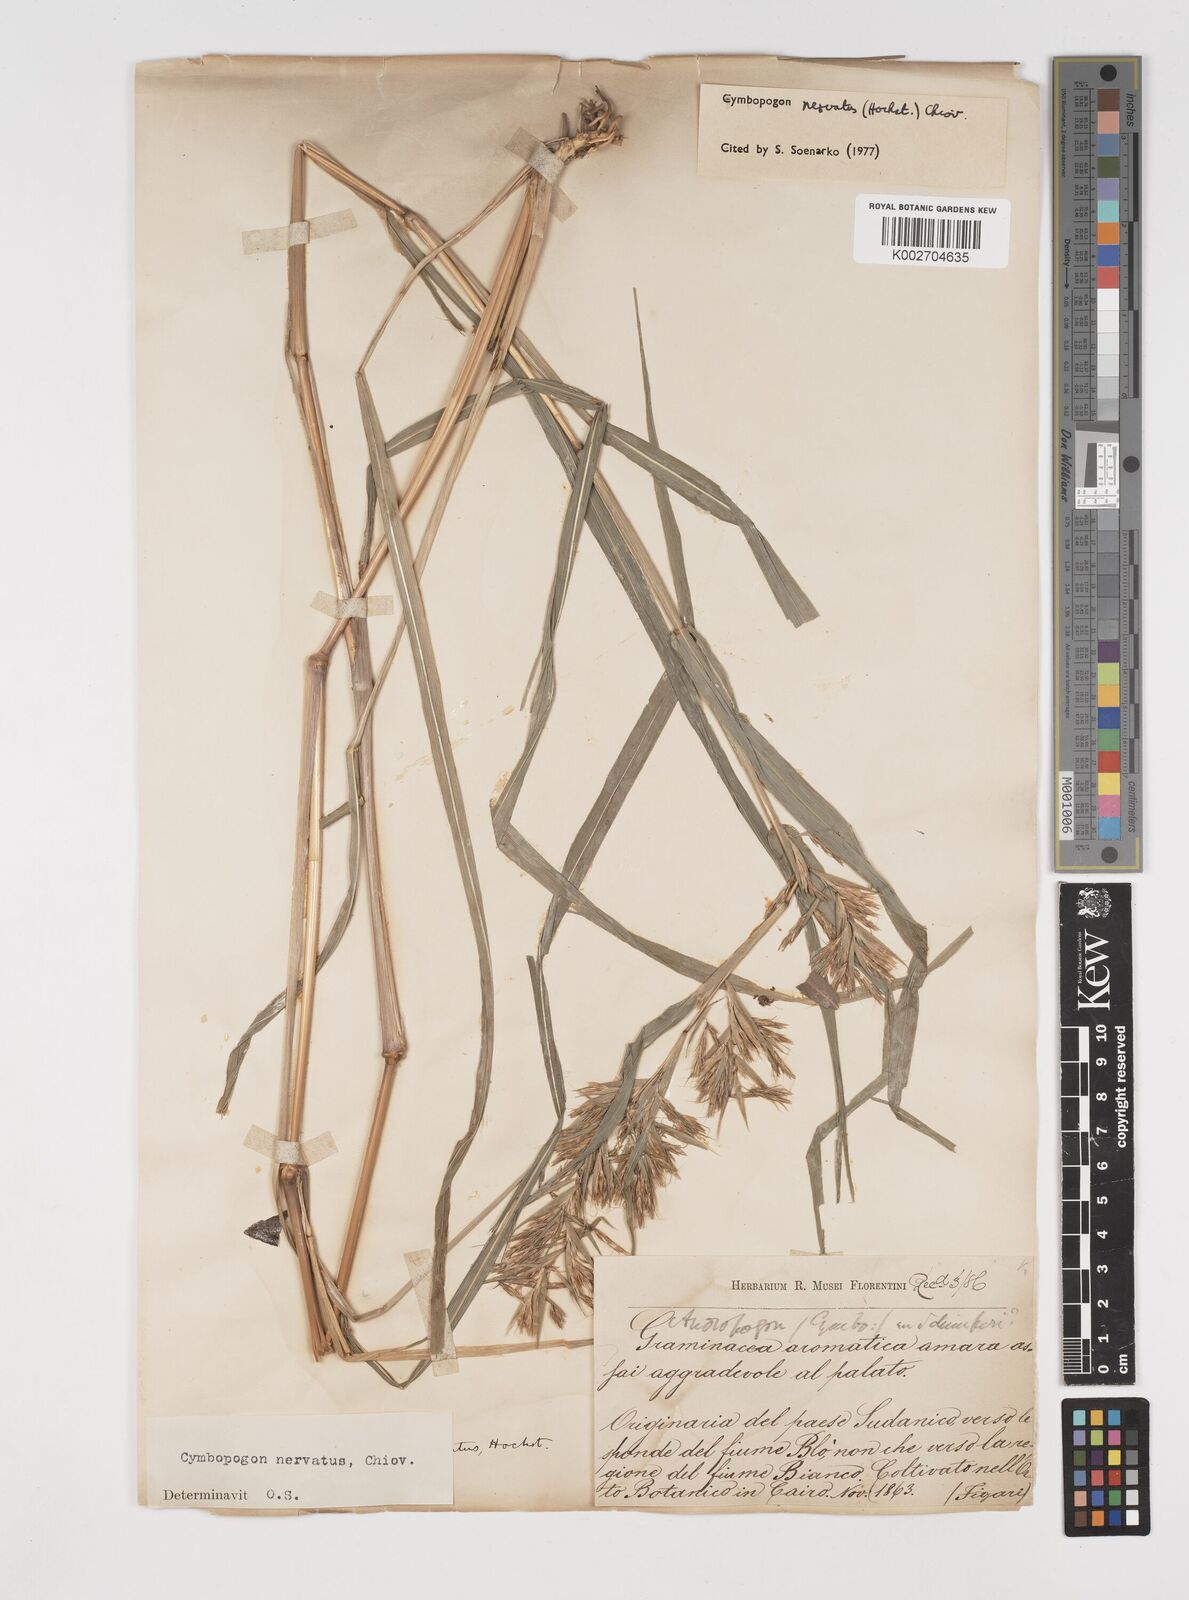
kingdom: Plantae
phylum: Tracheophyta
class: Liliopsida
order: Poales
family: Poaceae
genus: Cymbopogon
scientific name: Cymbopogon nervatus
